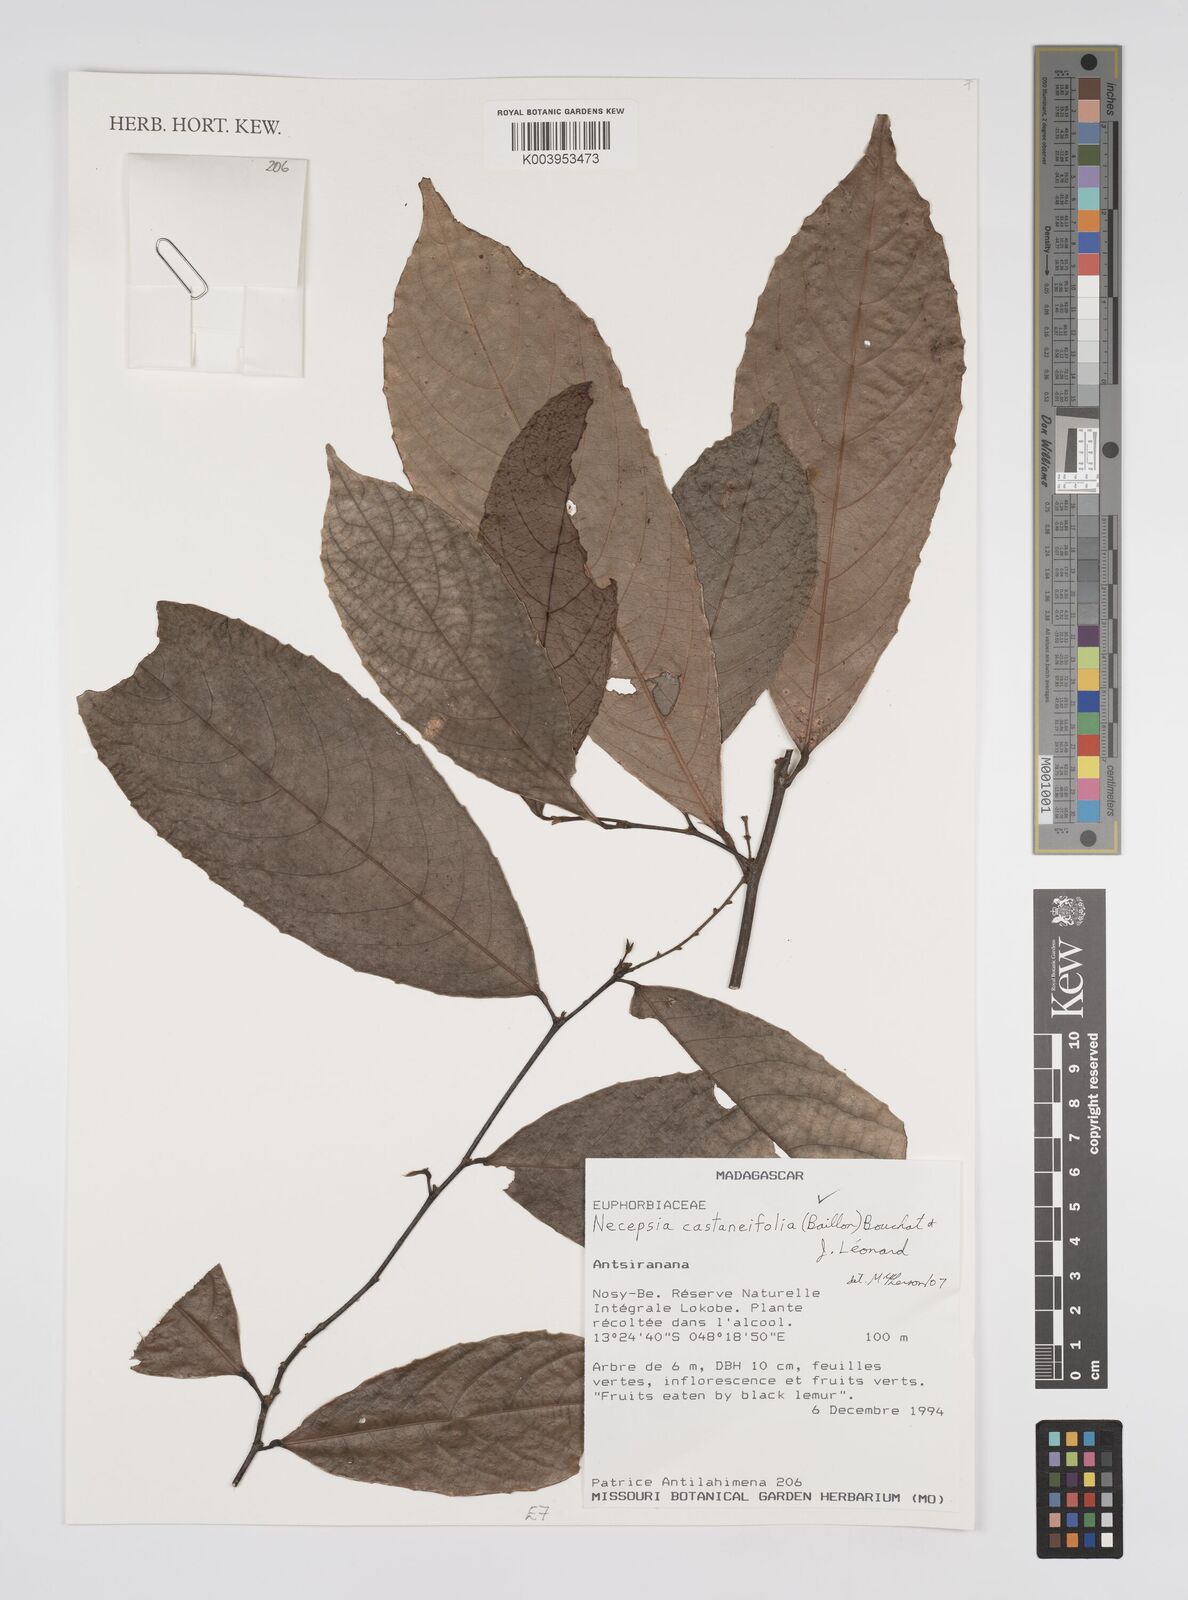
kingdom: Plantae
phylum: Tracheophyta
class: Magnoliopsida
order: Malpighiales
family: Euphorbiaceae
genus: Necepsia
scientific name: Necepsia castaneifolia
